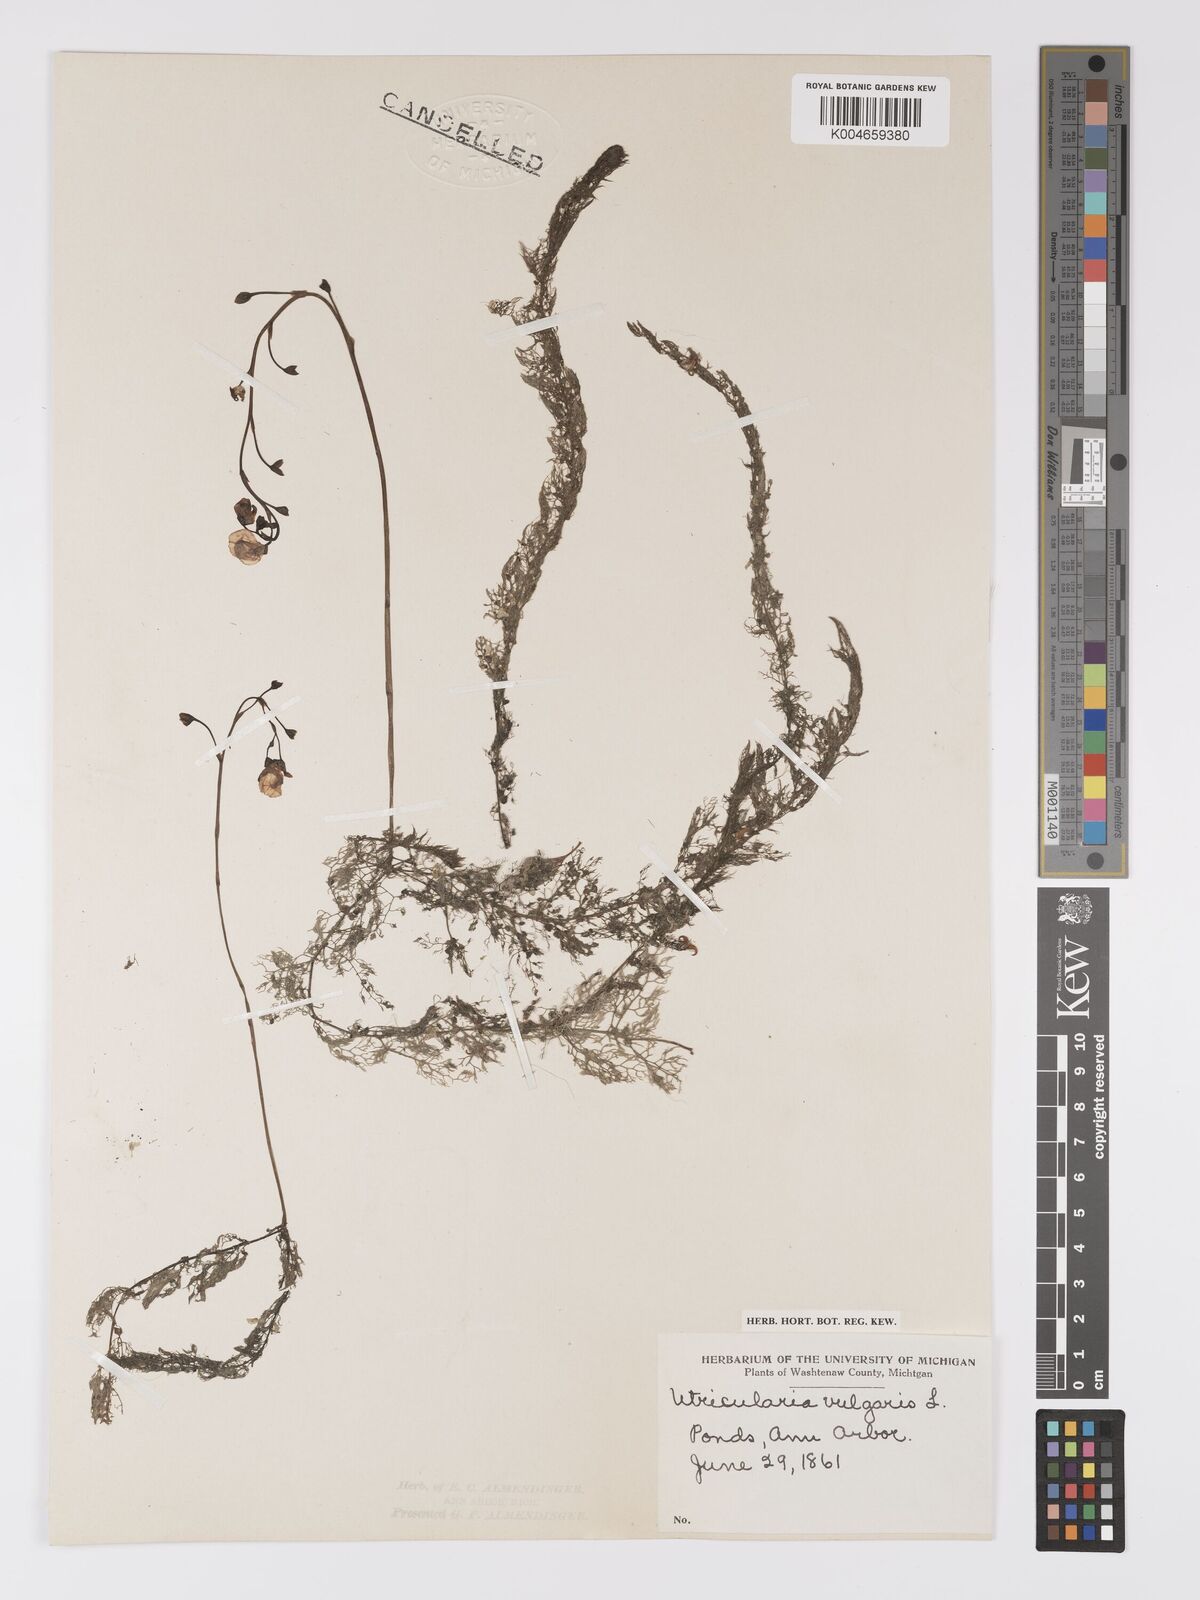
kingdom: Plantae
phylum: Tracheophyta
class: Magnoliopsida
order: Lamiales
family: Lentibulariaceae
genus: Utricularia
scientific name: Utricularia macrorhiza
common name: Common bladderwort
